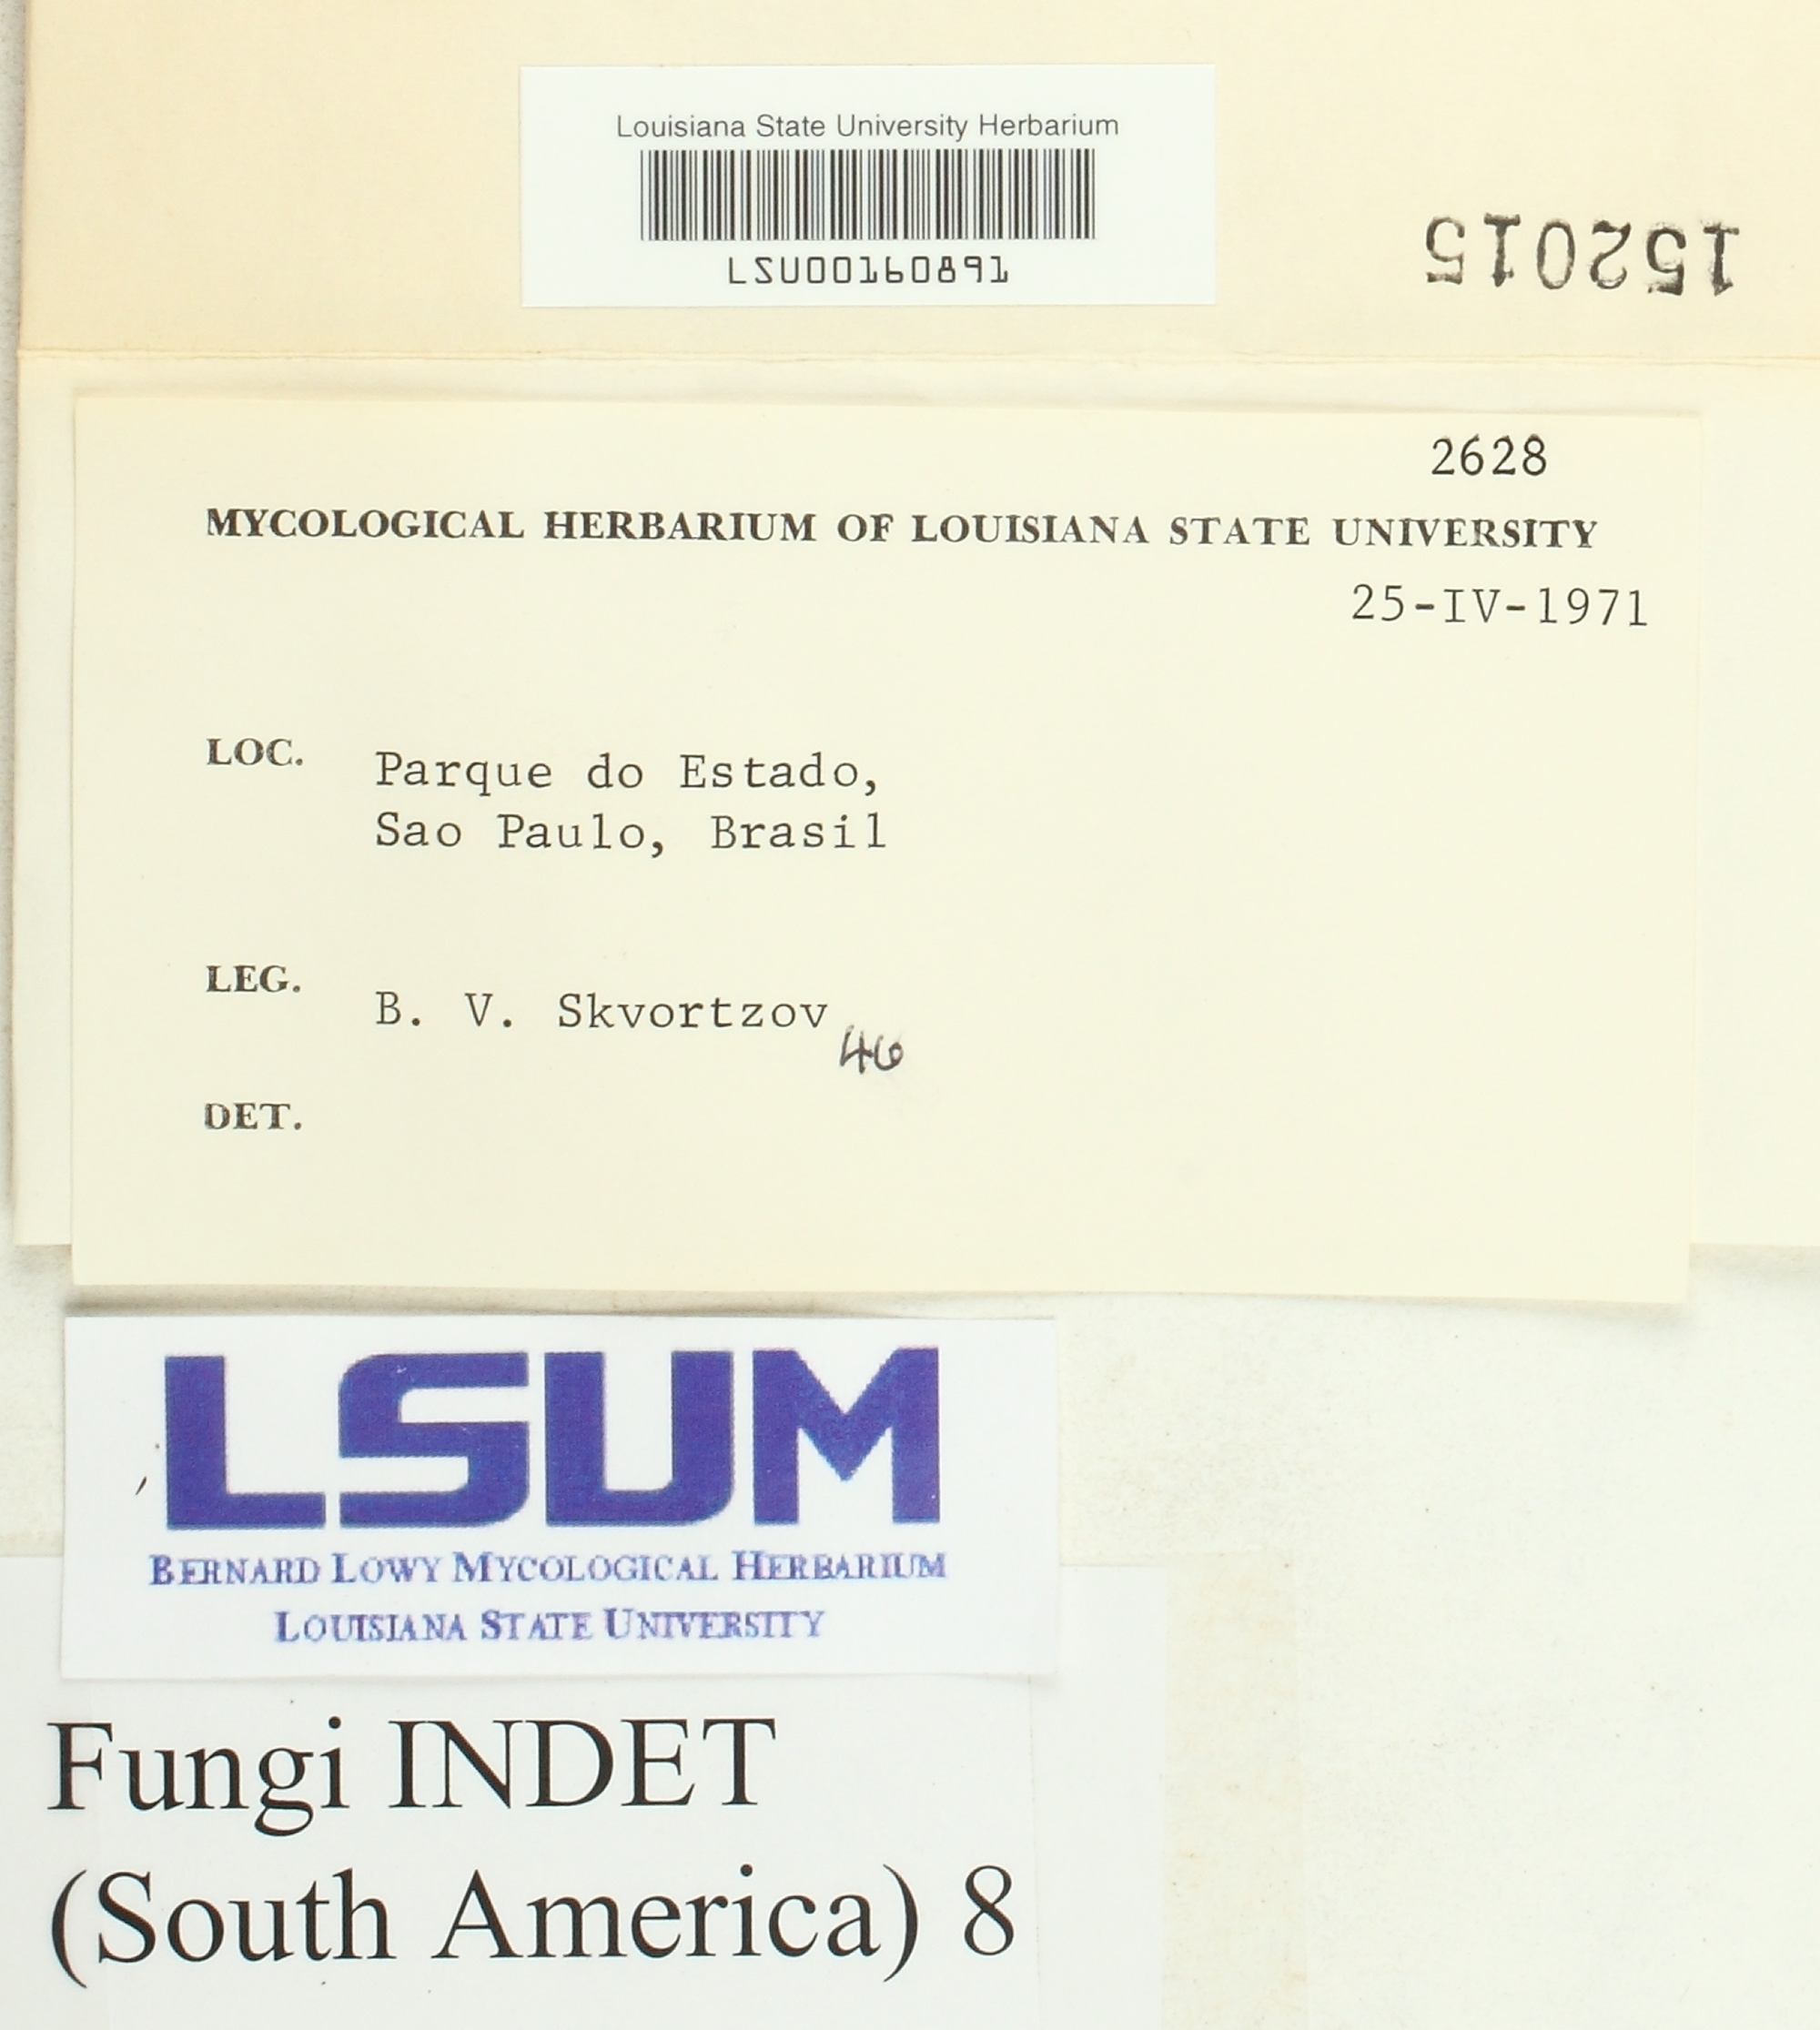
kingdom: Fungi
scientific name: Fungi
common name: Fungi
